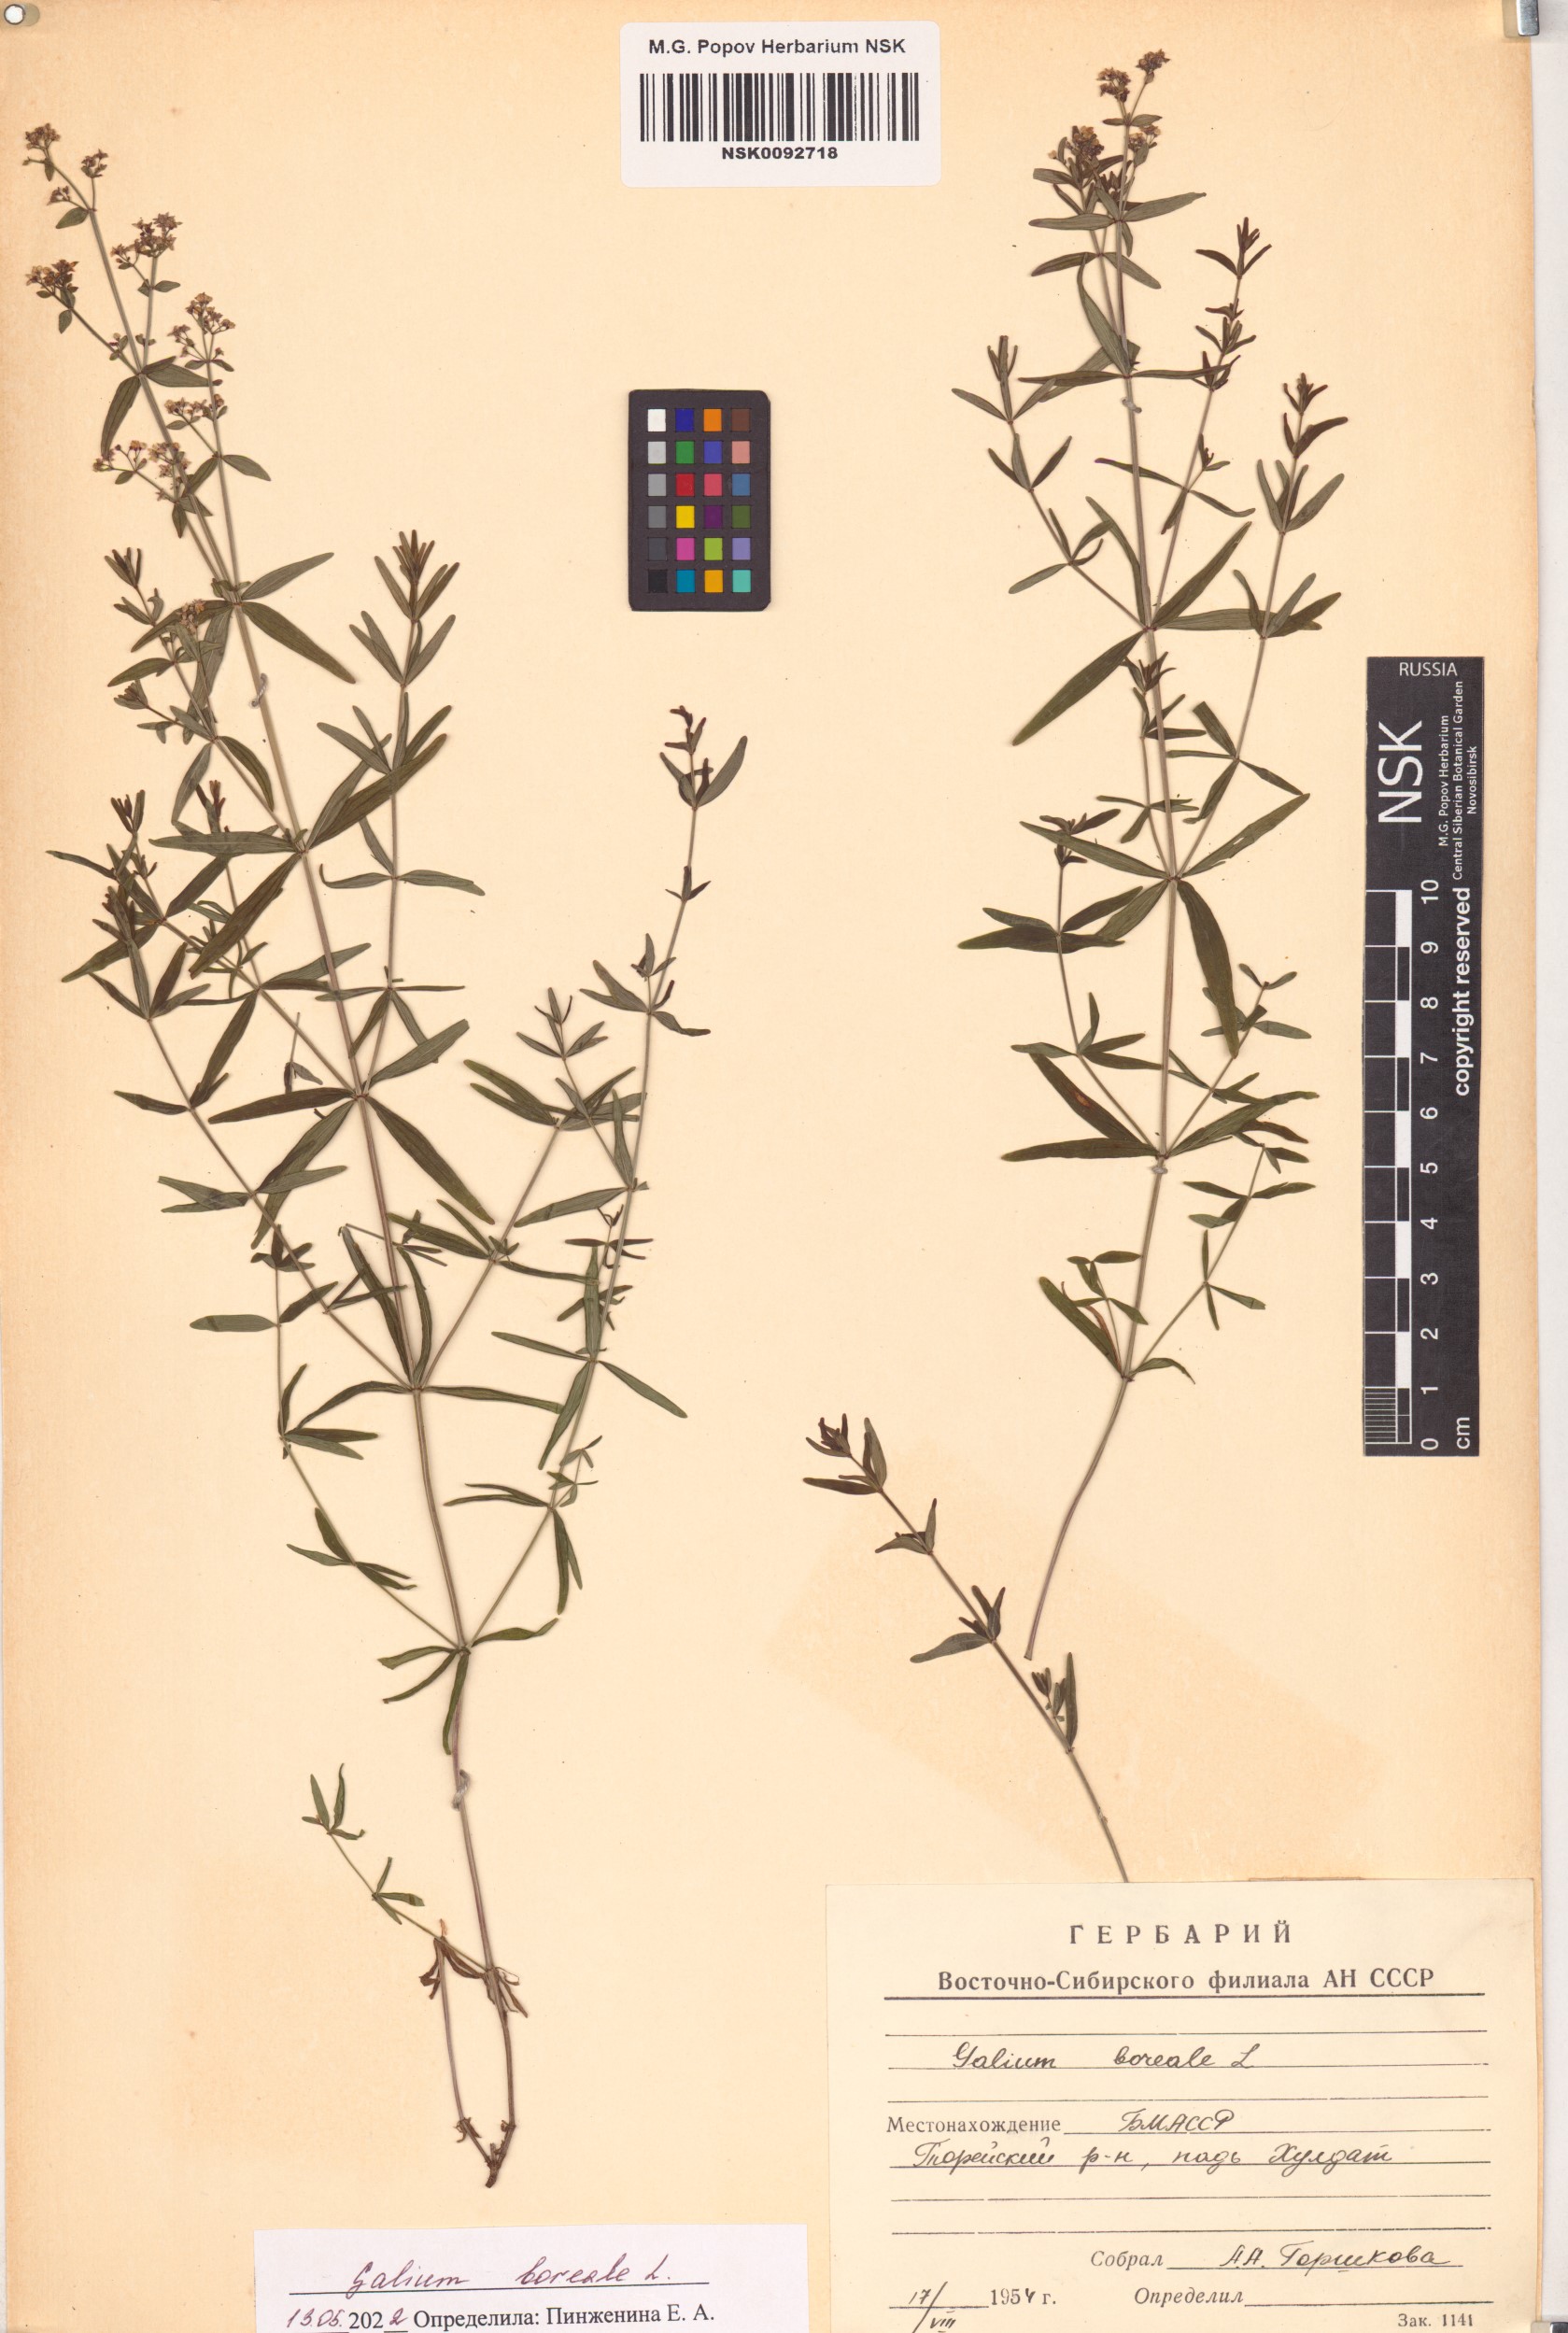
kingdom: Plantae
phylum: Tracheophyta
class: Magnoliopsida
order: Gentianales
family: Rubiaceae
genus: Galium
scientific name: Galium boreale
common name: Northern bedstraw
